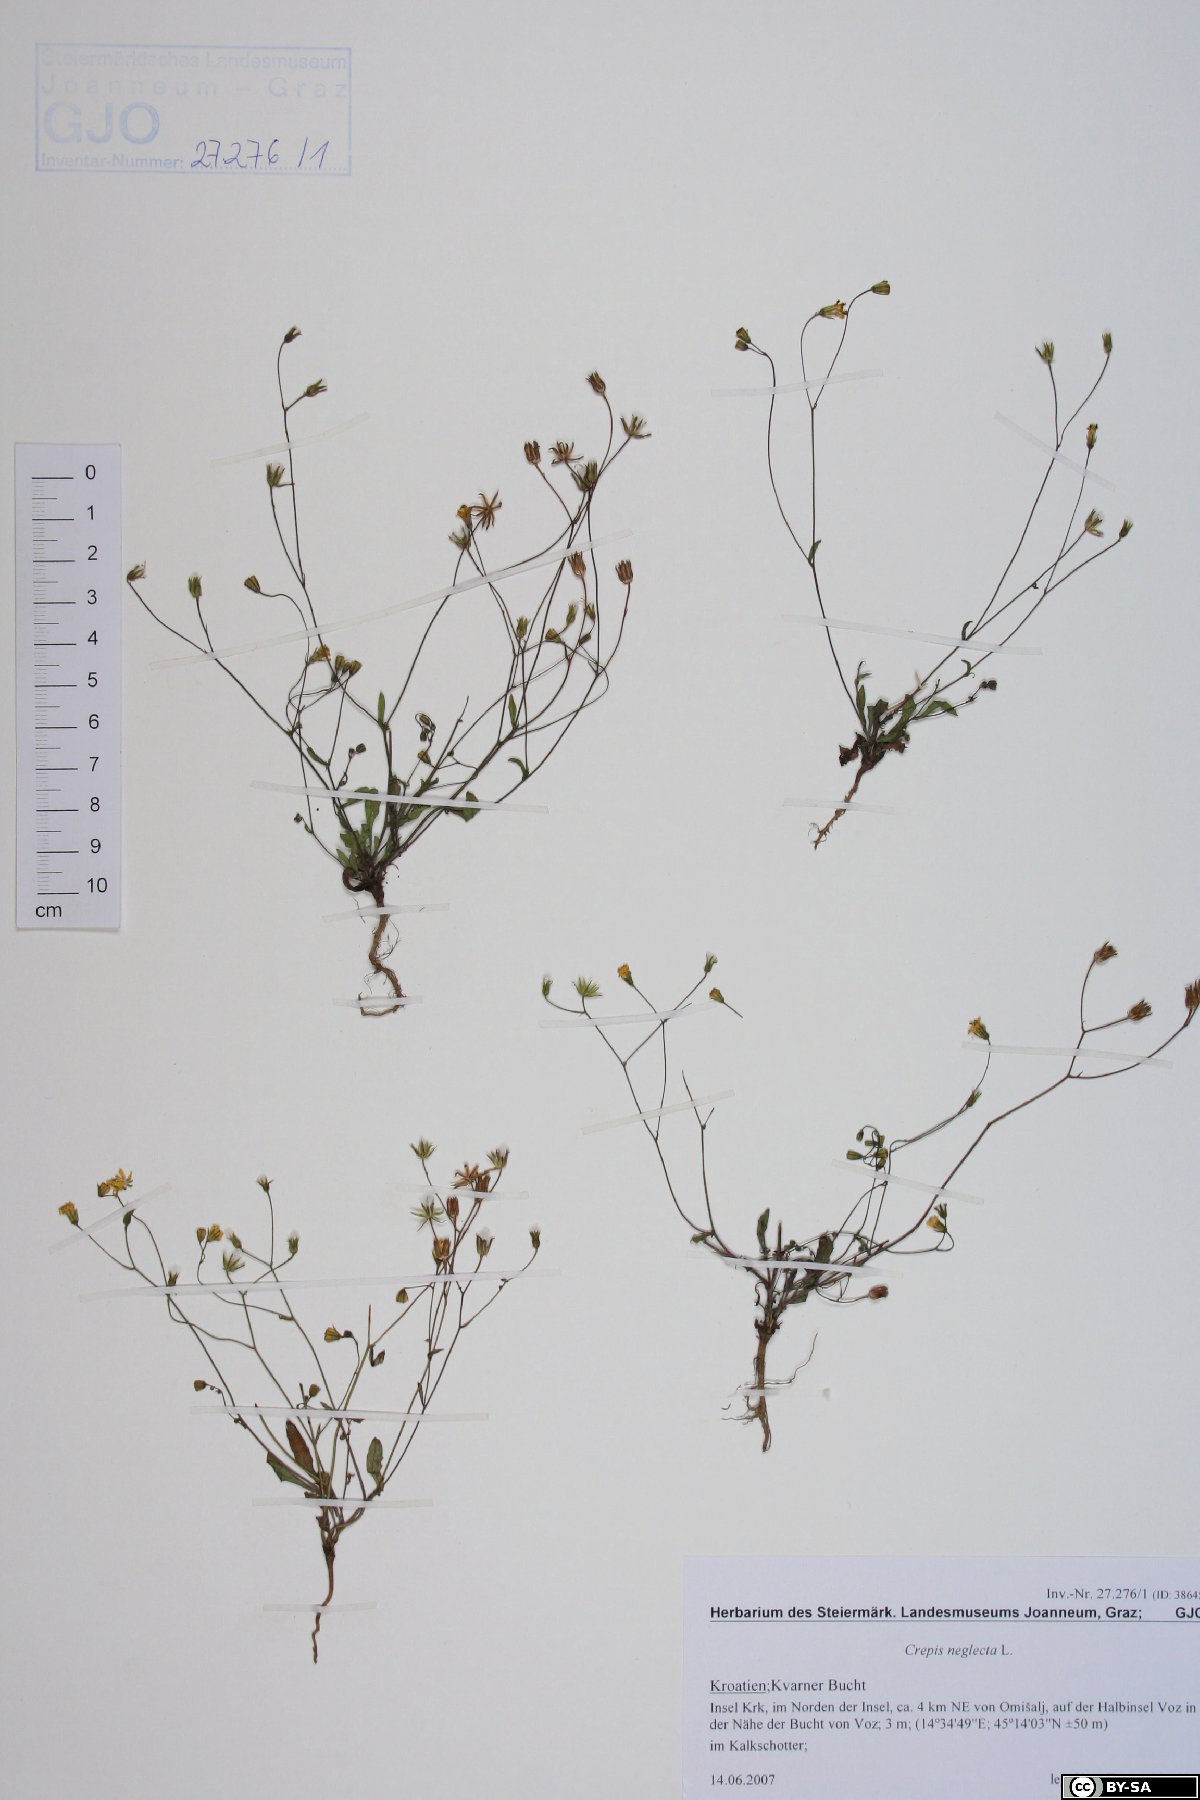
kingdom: Plantae
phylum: Tracheophyta
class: Magnoliopsida
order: Asterales
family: Asteraceae
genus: Crepis
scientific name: Crepis neglecta
